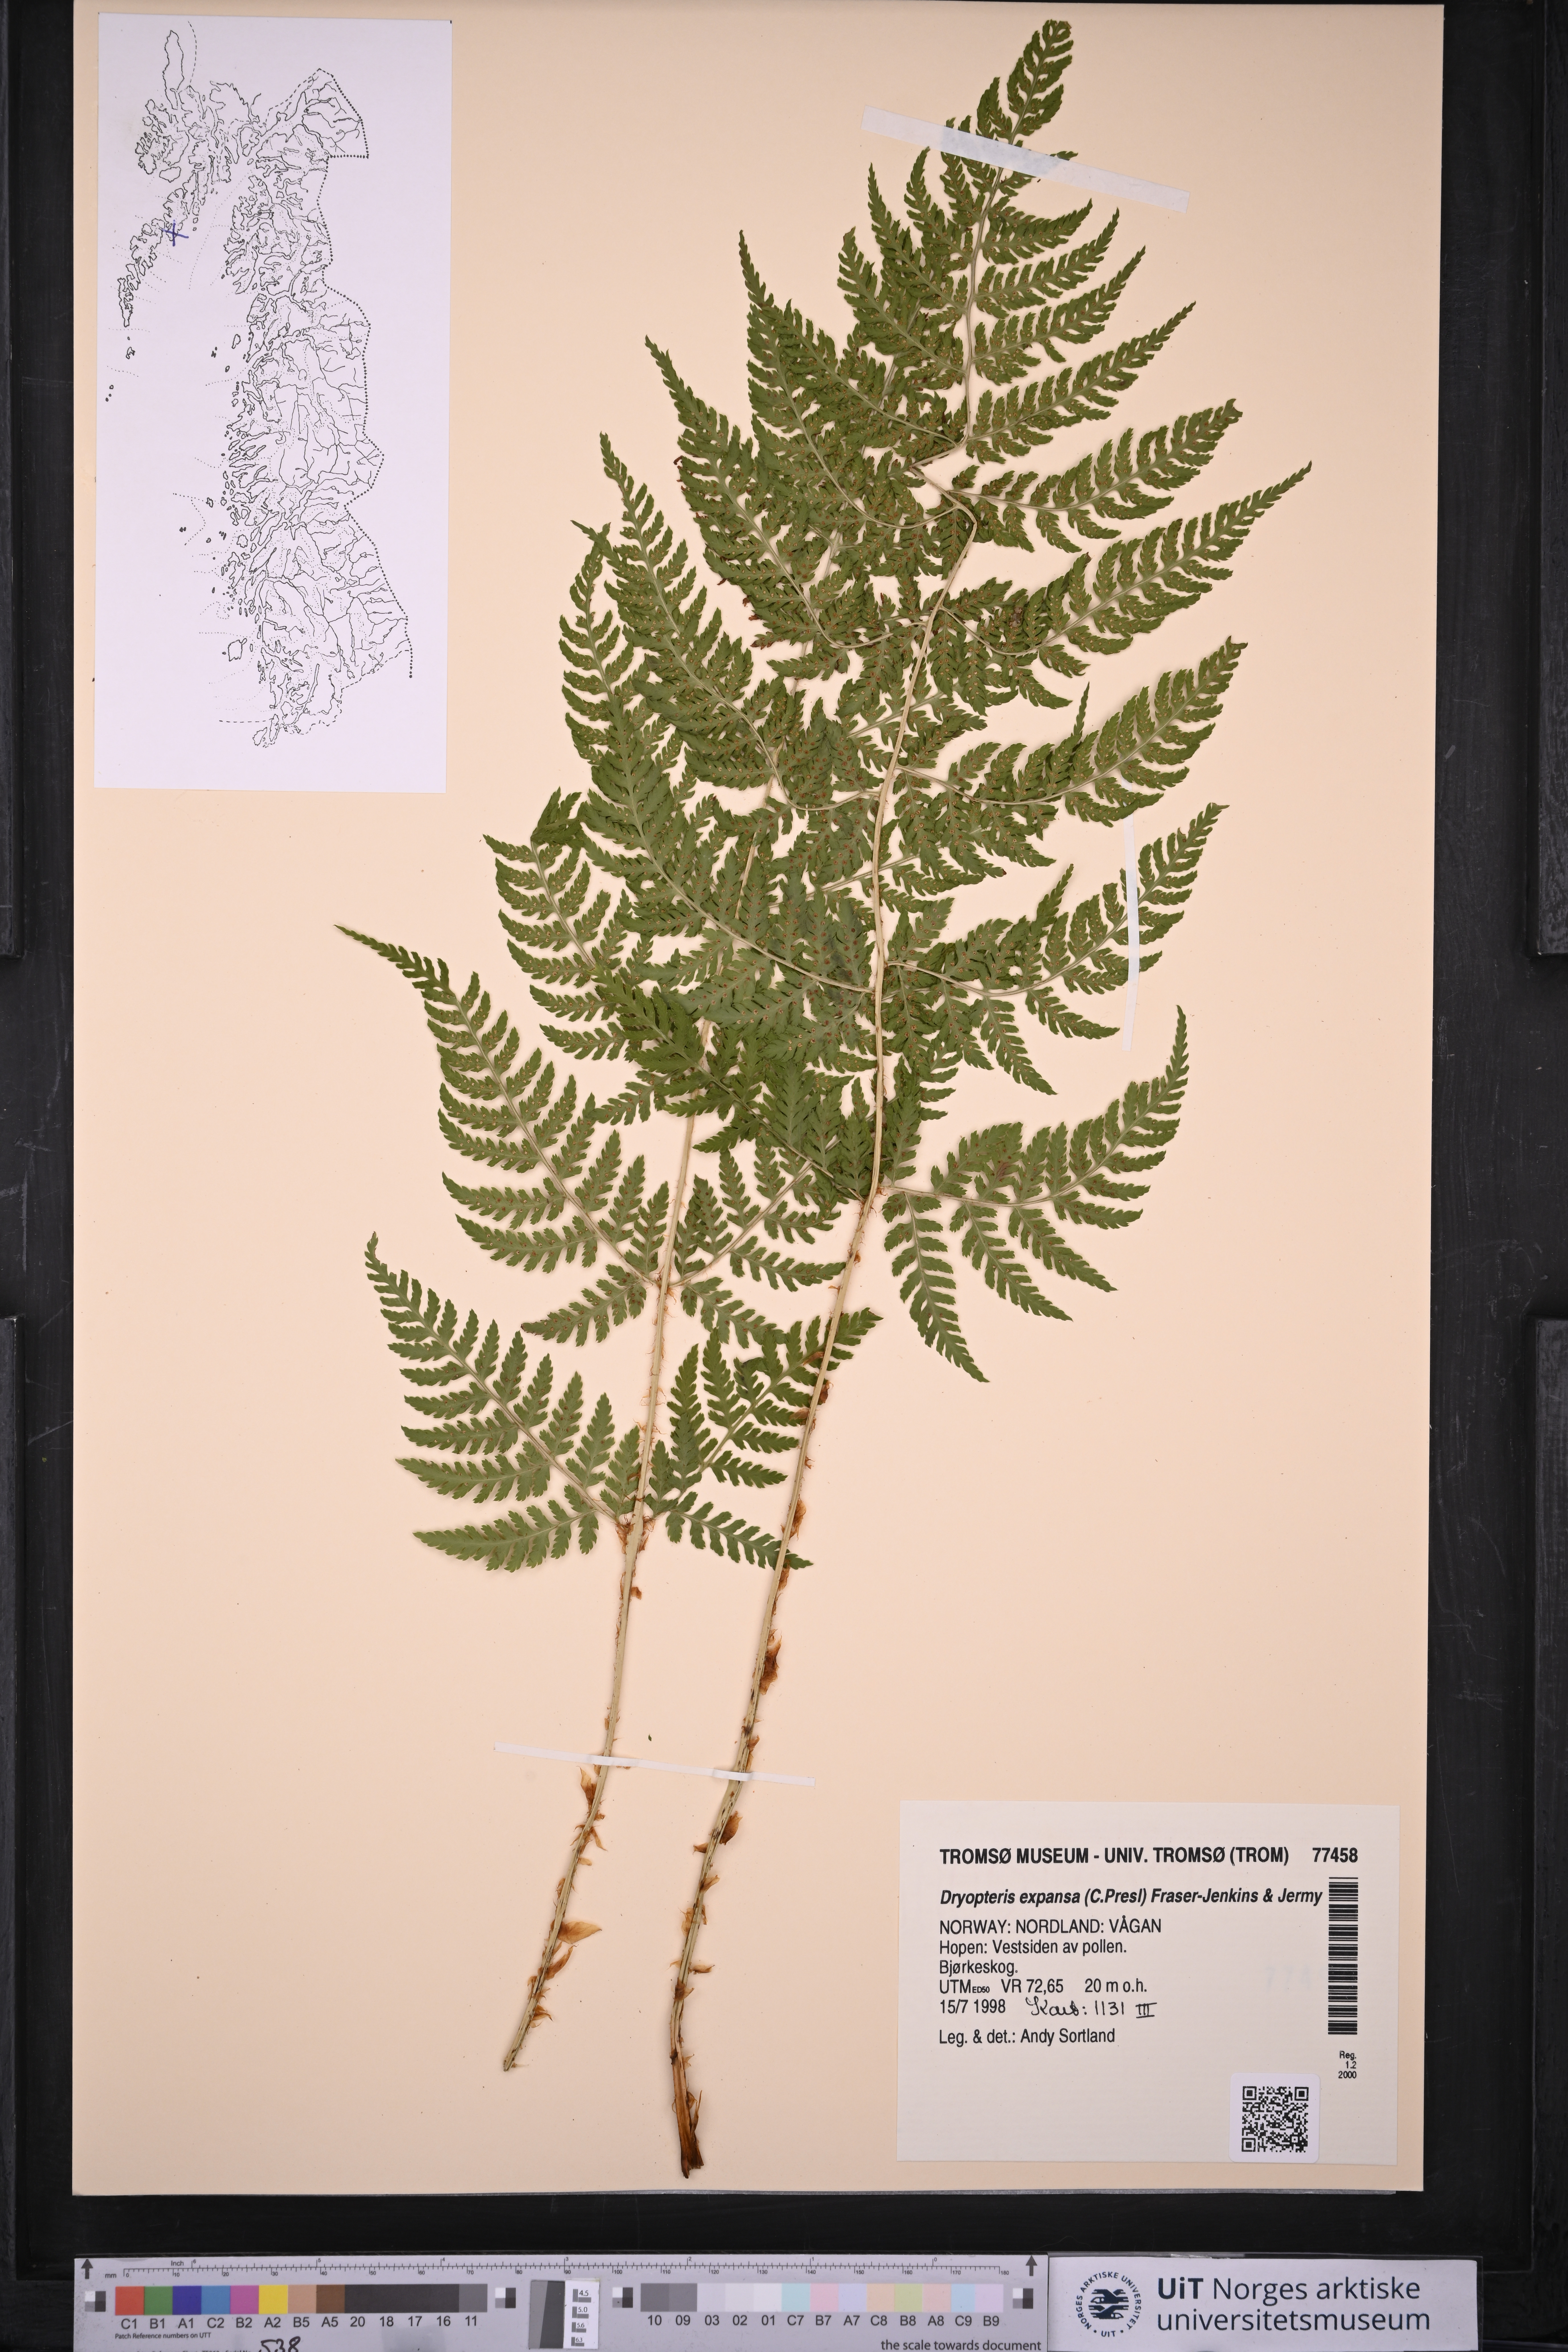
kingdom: Plantae
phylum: Tracheophyta
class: Polypodiopsida
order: Polypodiales
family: Dryopteridaceae
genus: Dryopteris
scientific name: Dryopteris expansa
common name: Northern buckler fern
